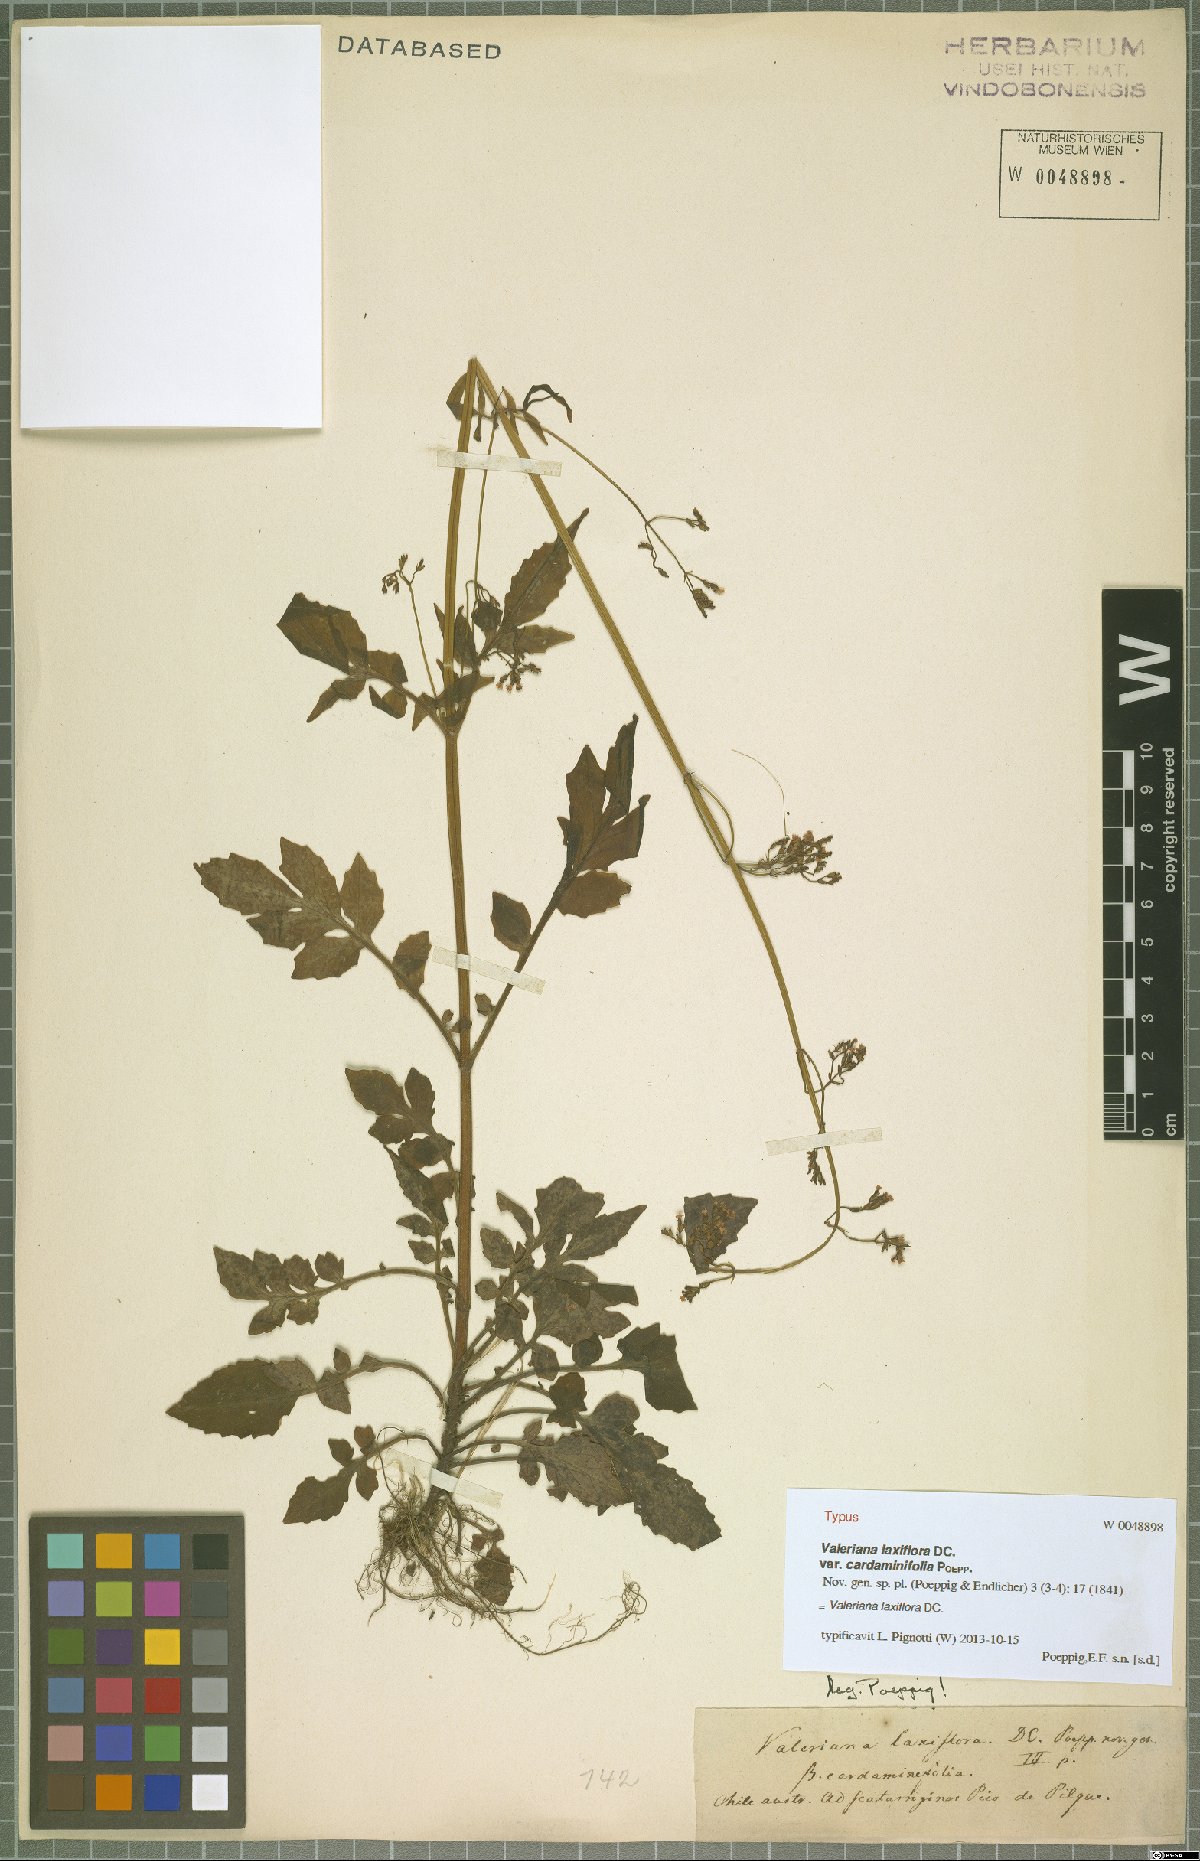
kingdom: Plantae
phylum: Tracheophyta
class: Magnoliopsida
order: Dipsacales
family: Caprifoliaceae
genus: Valeriana
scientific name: Valeriana laxiflora
